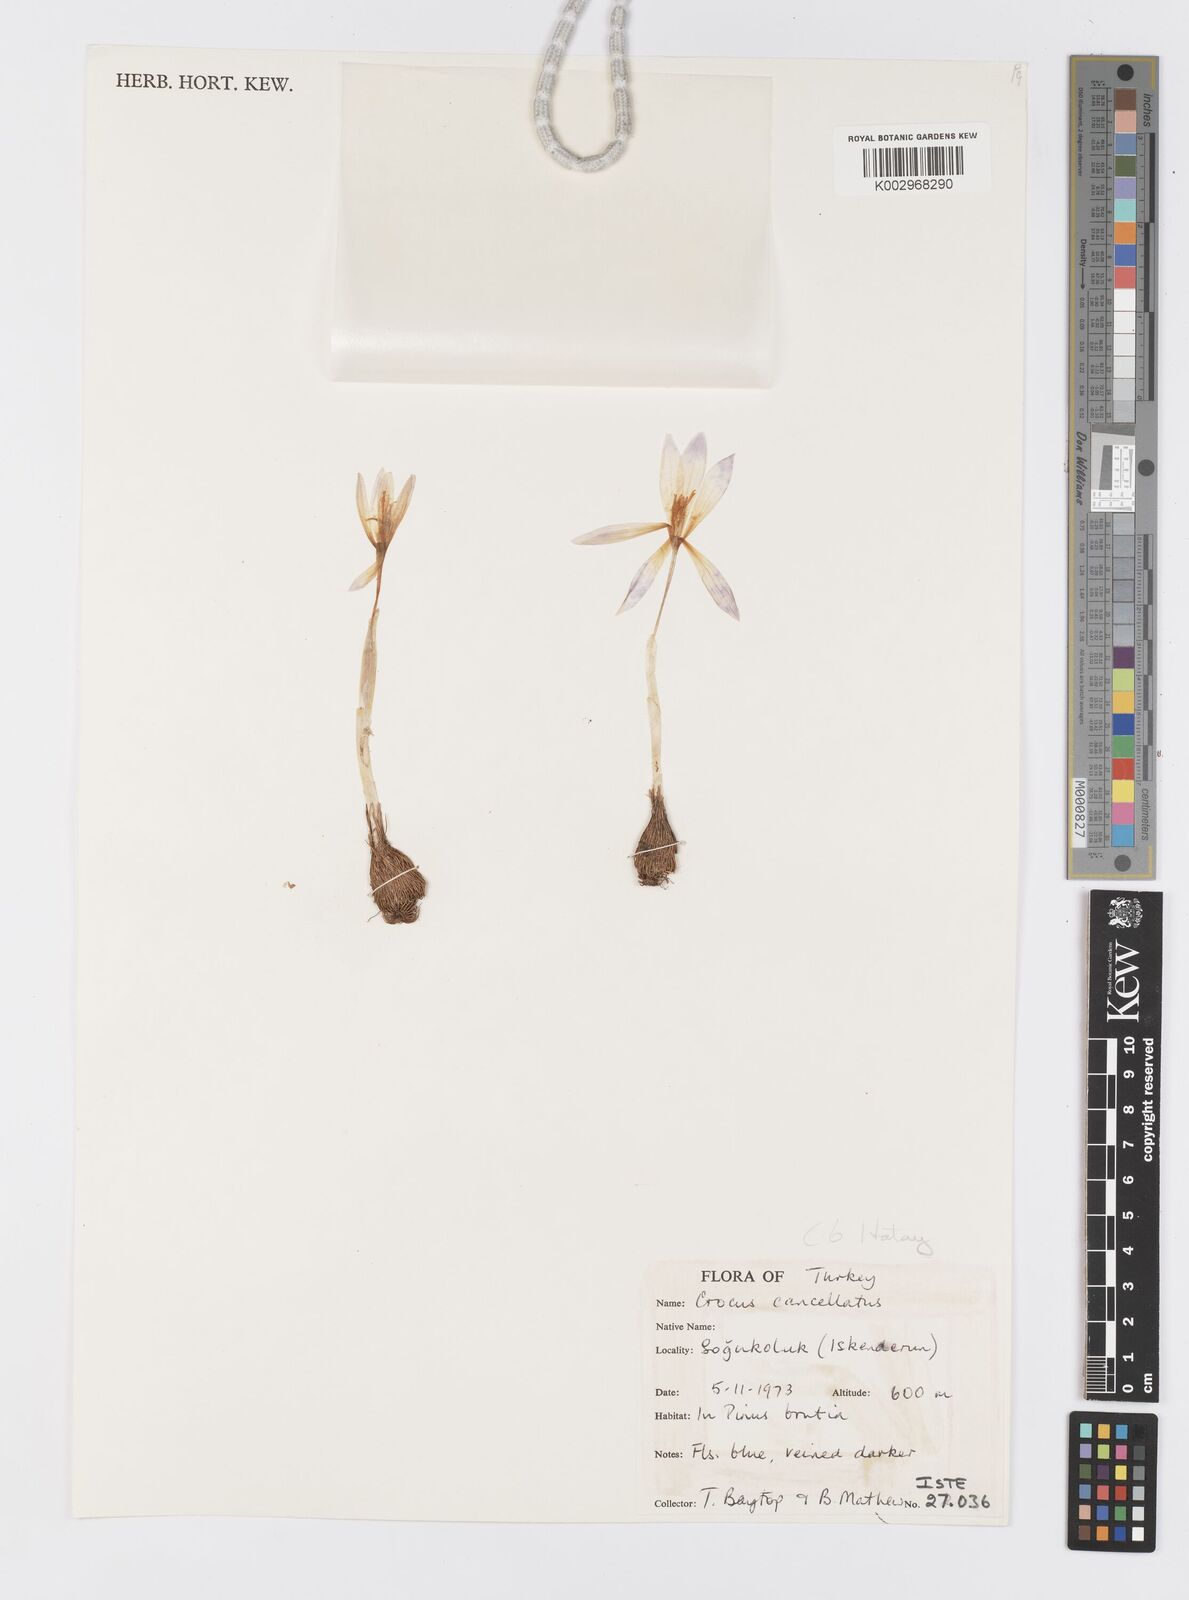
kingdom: Plantae
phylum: Tracheophyta
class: Liliopsida
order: Asparagales
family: Iridaceae
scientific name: Iridaceae
